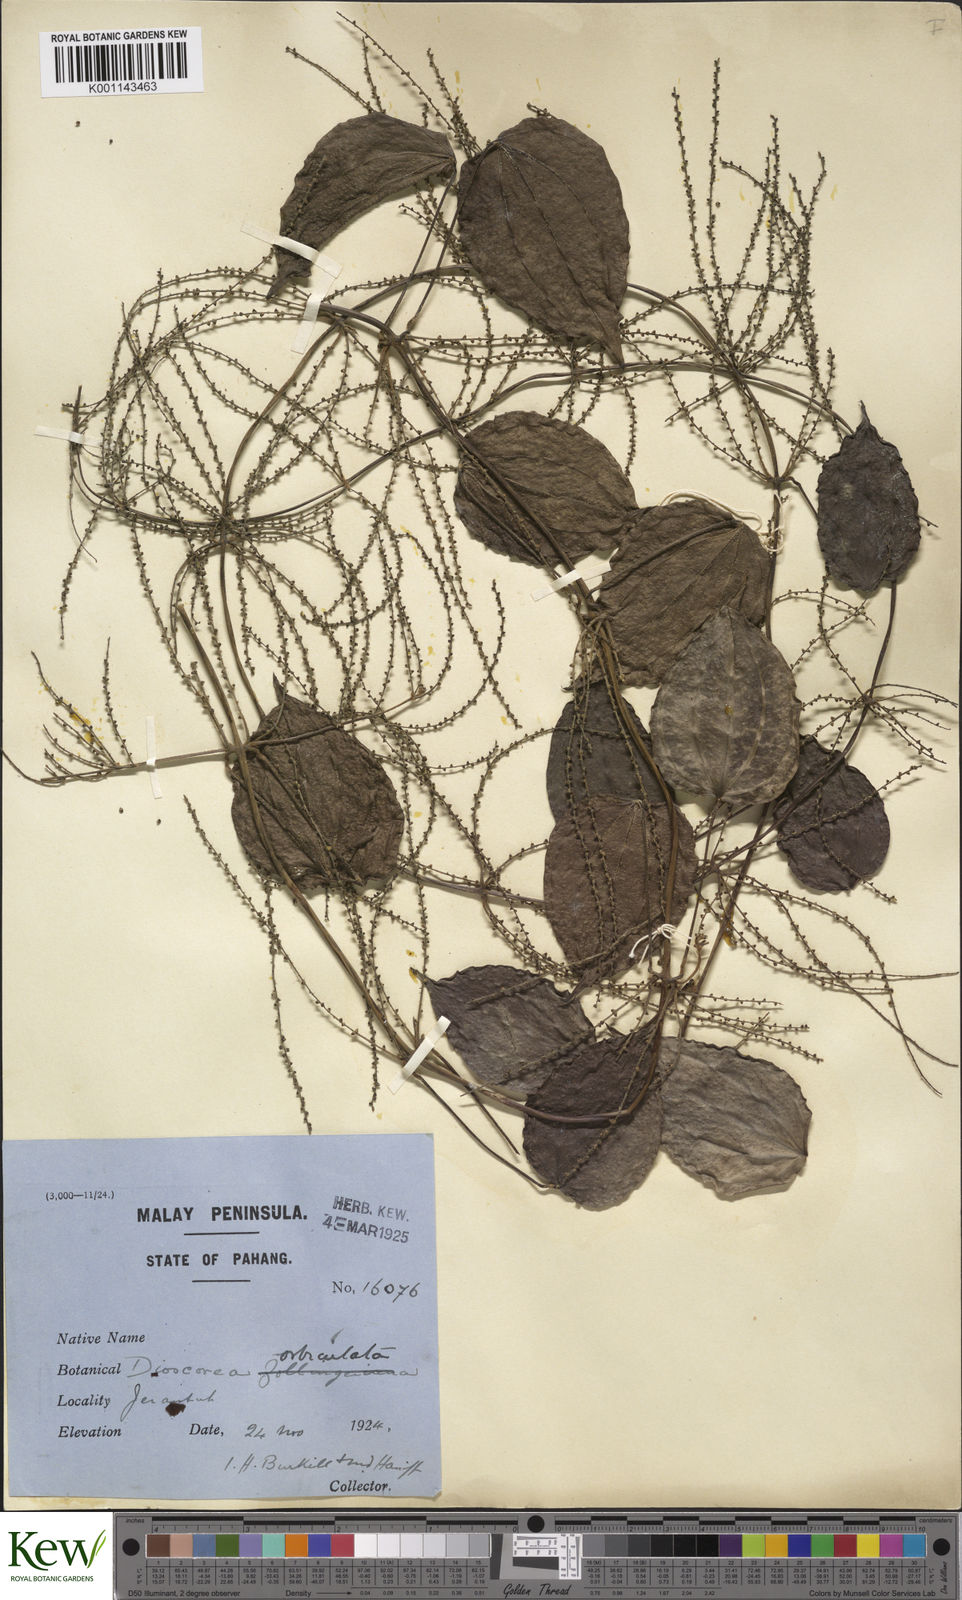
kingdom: Plantae
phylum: Tracheophyta
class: Liliopsida
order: Dioscoreales
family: Dioscoreaceae
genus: Dioscorea
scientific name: Dioscorea orbiculata
